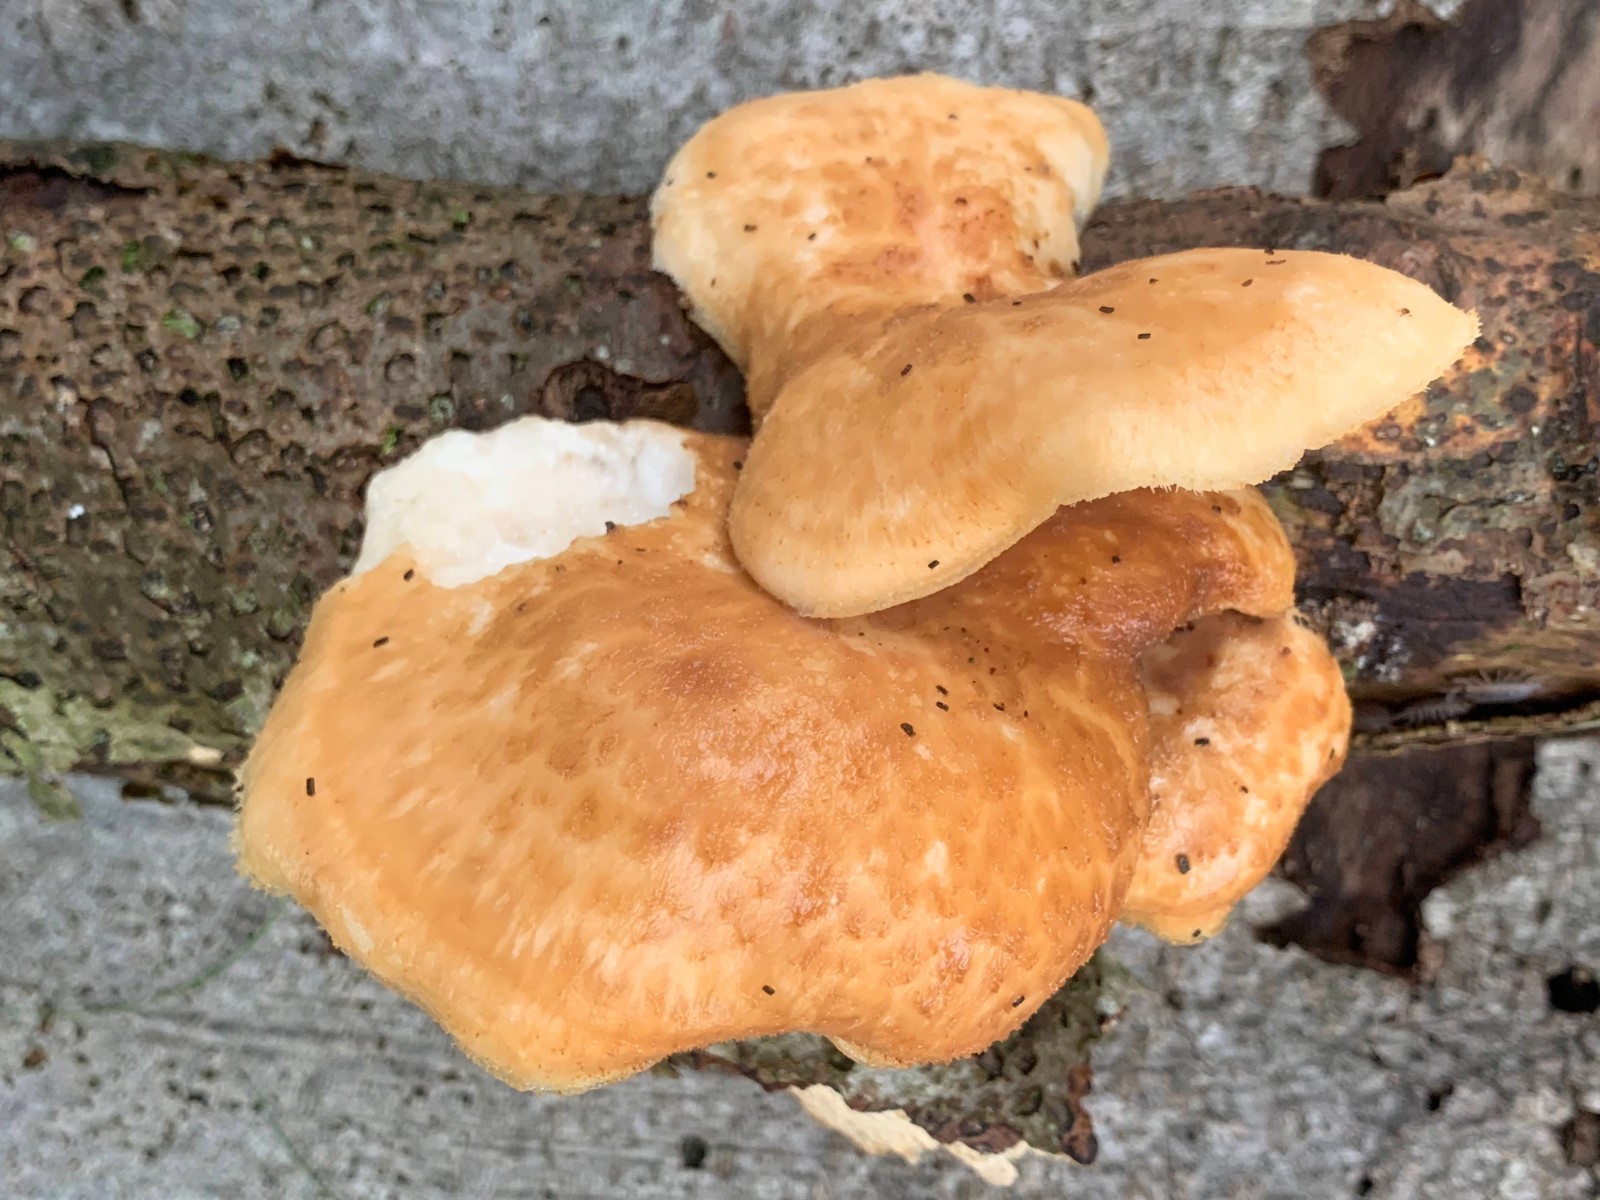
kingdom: Fungi
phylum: Basidiomycota
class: Agaricomycetes
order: Polyporales
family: Polyporaceae
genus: Cerioporus
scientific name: Cerioporus squamosus
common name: skællet stilkporesvamp
